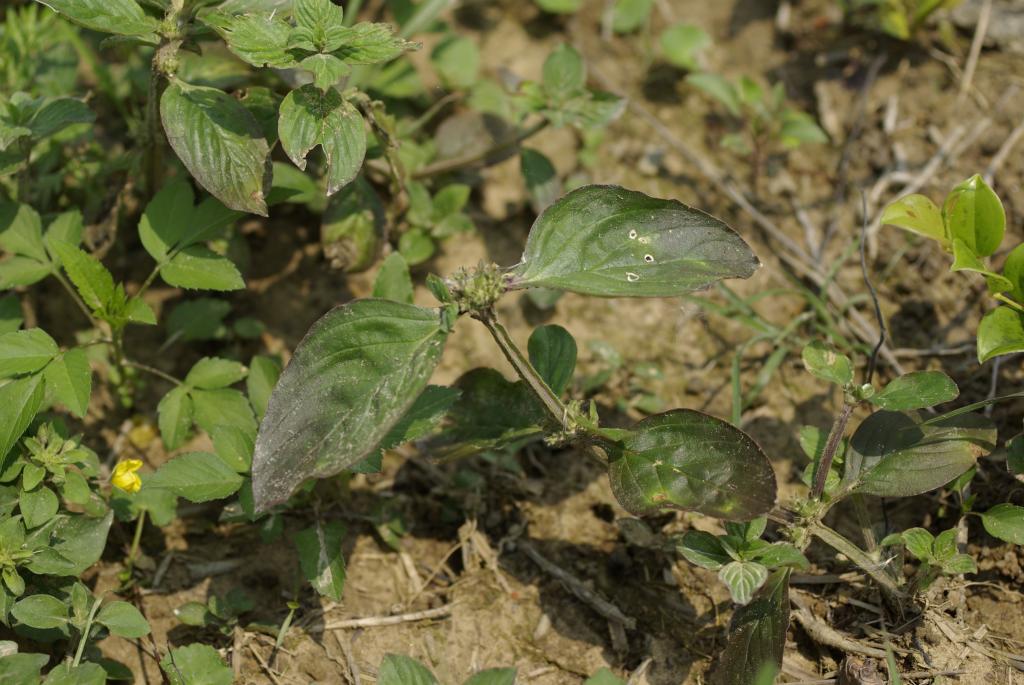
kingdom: Plantae
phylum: Tracheophyta
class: Magnoliopsida
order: Gentianales
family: Rubiaceae
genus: Spermacoce
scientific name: Spermacoce latifolia
